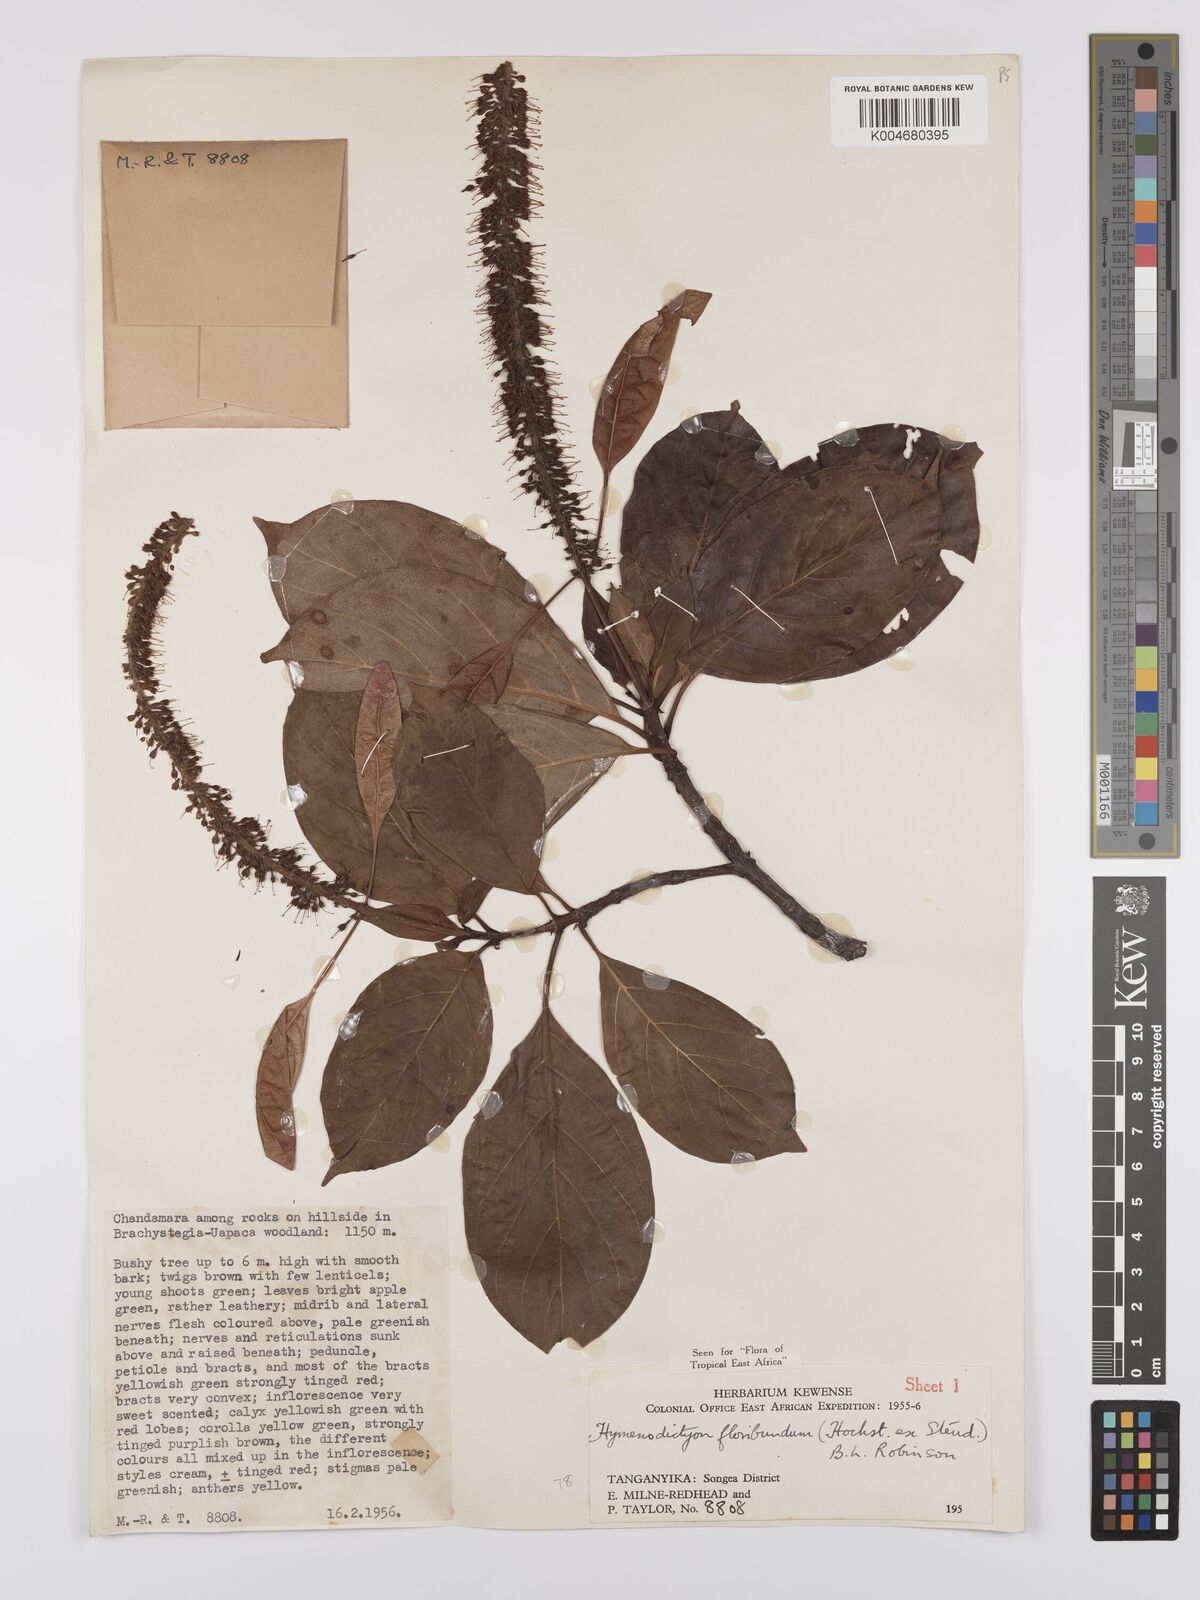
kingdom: Plantae
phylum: Tracheophyta
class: Magnoliopsida
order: Gentianales
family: Rubiaceae
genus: Hymenodictyon
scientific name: Hymenodictyon floribundum
